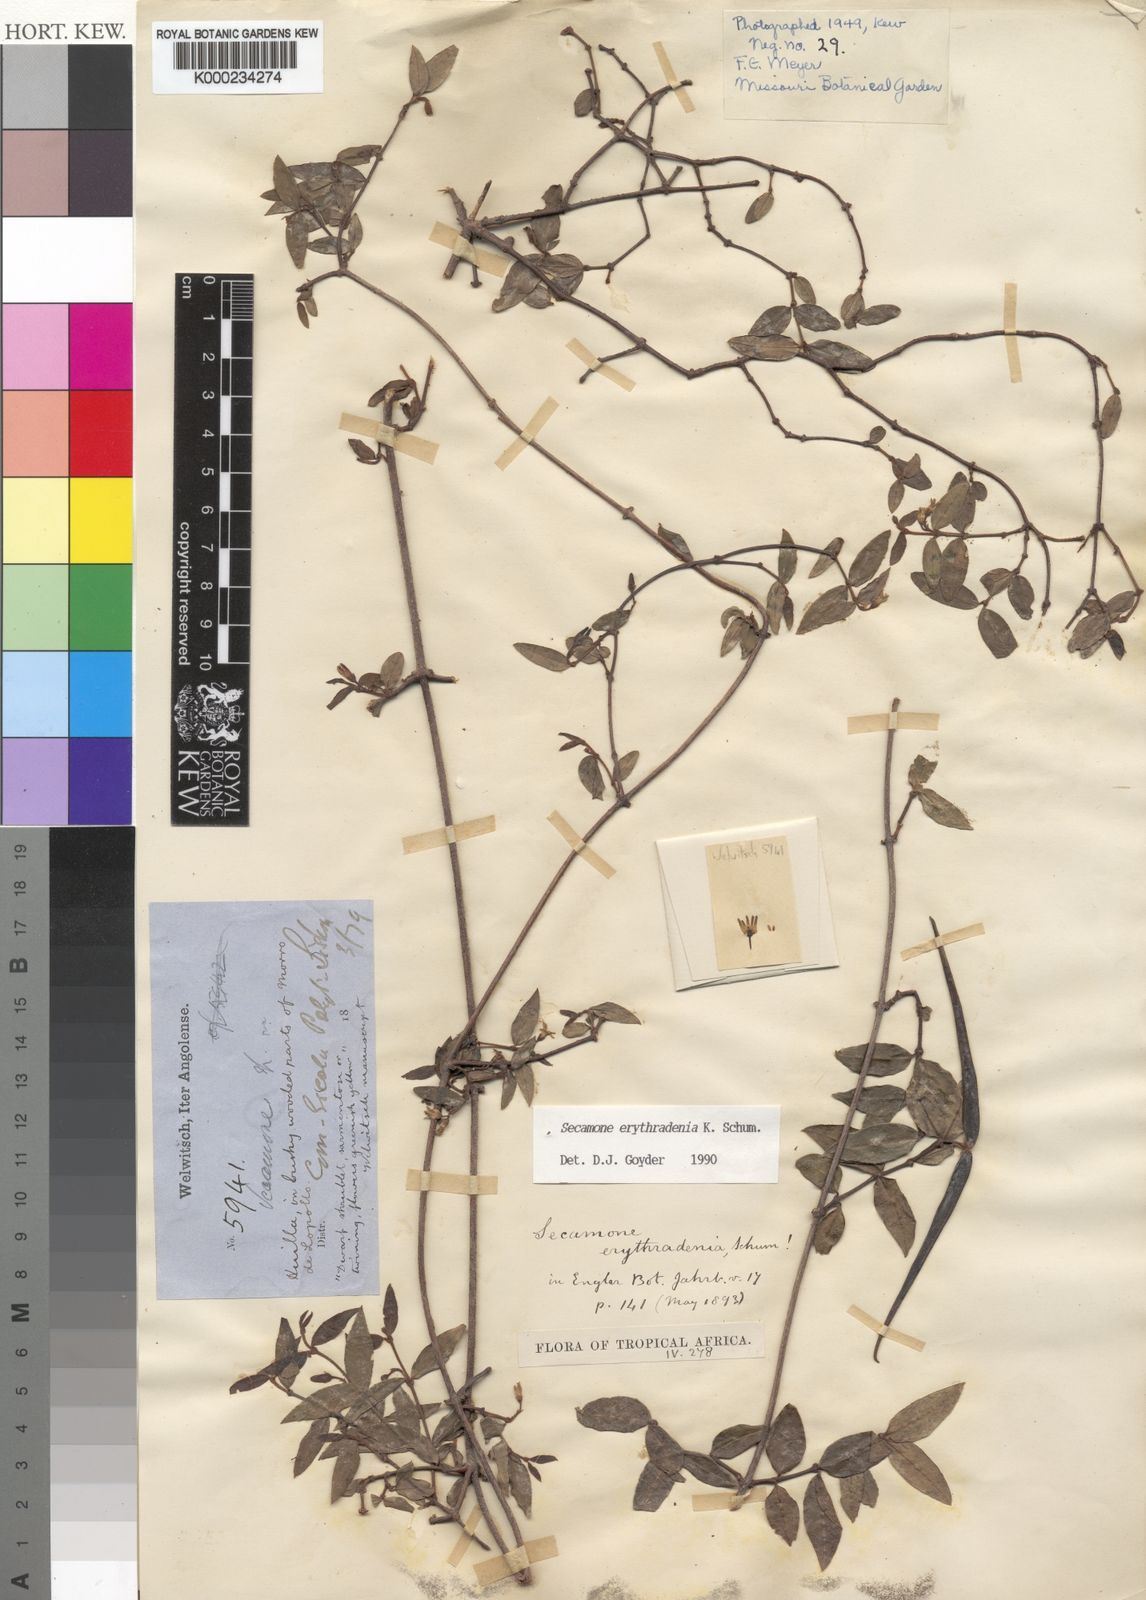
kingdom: Plantae
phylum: Tracheophyta
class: Magnoliopsida
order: Gentianales
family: Apocynaceae
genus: Secamone
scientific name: Secamone erythradenia
